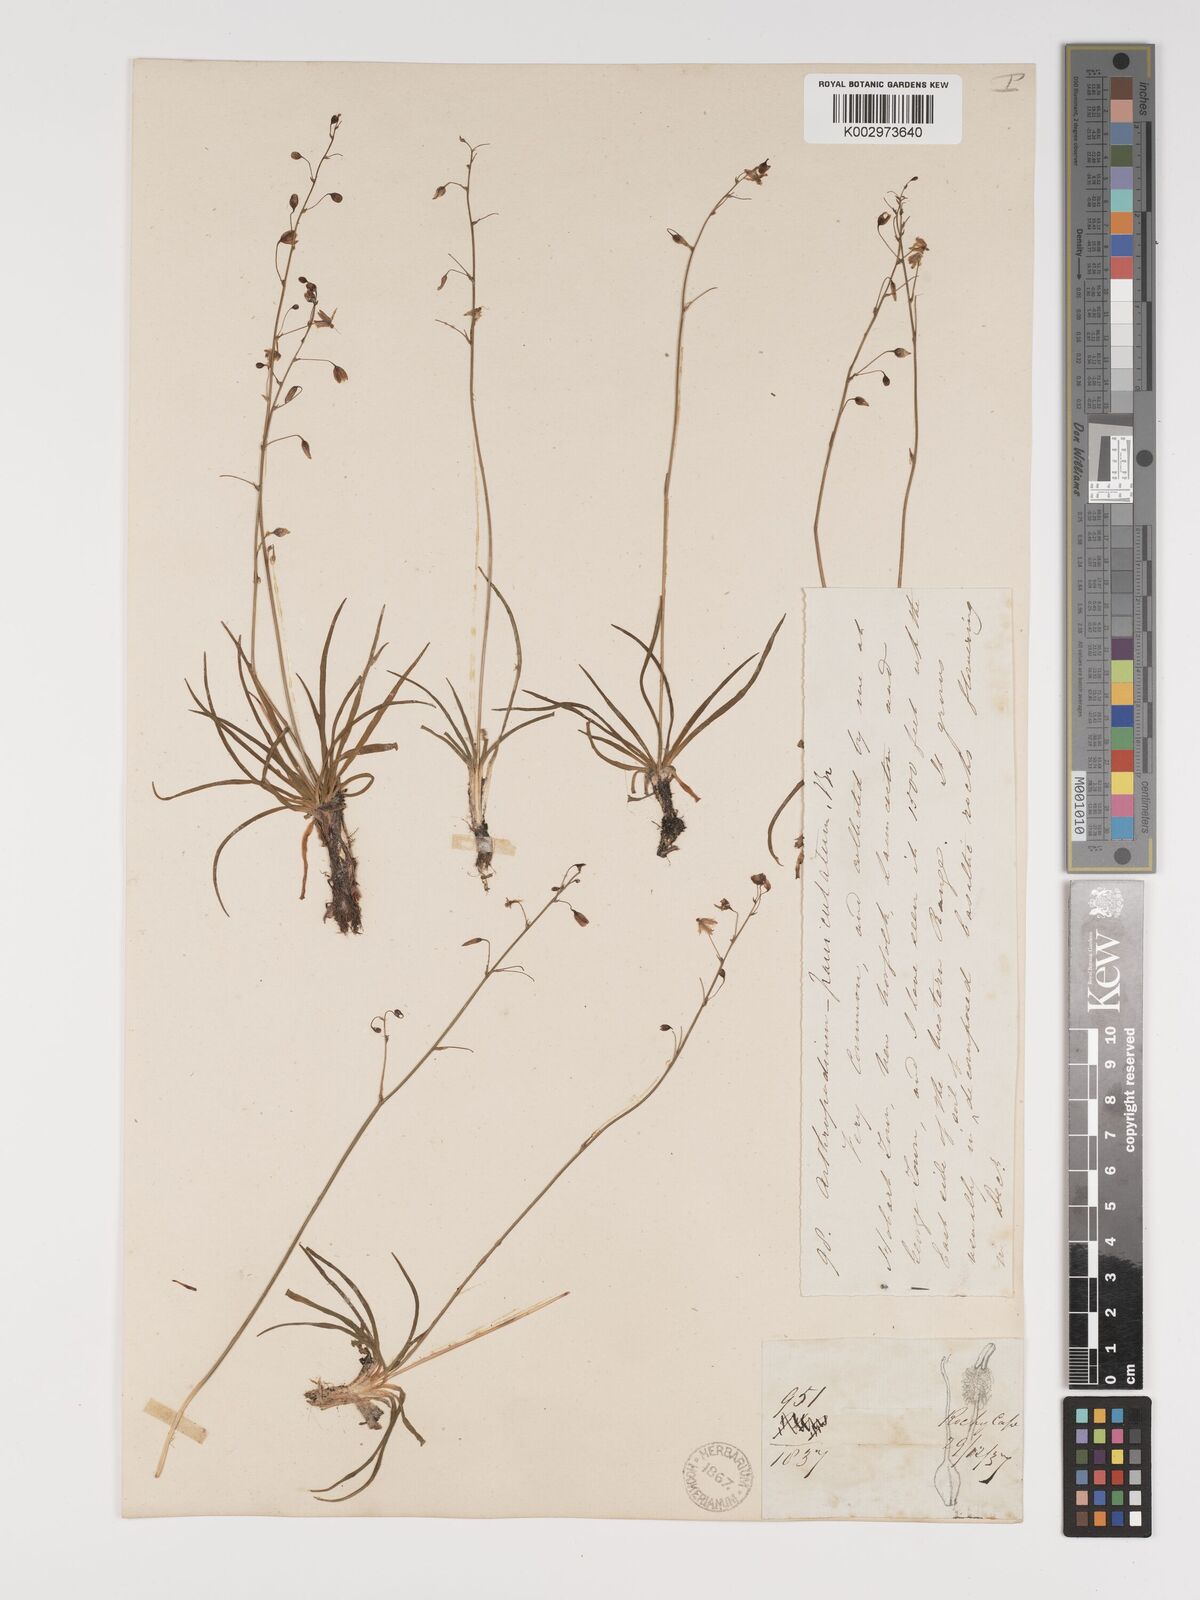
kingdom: Plantae
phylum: Tracheophyta
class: Liliopsida
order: Asparagales
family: Asparagaceae
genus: Arthropodium
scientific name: Arthropodium milleflorum
